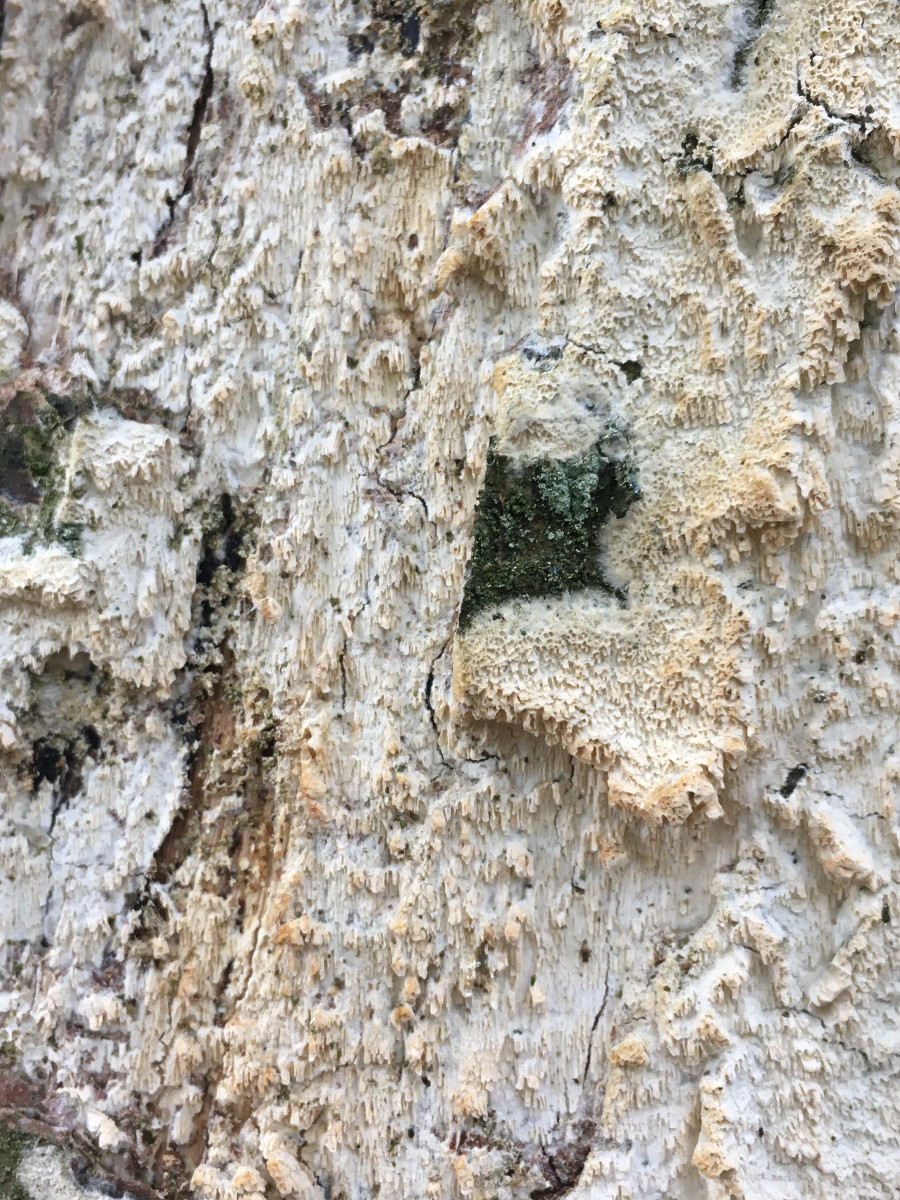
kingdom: Fungi
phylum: Basidiomycota
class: Agaricomycetes
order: Hymenochaetales
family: Schizoporaceae
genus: Schizopora
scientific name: Schizopora paradoxa
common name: hvid tandsvamp
